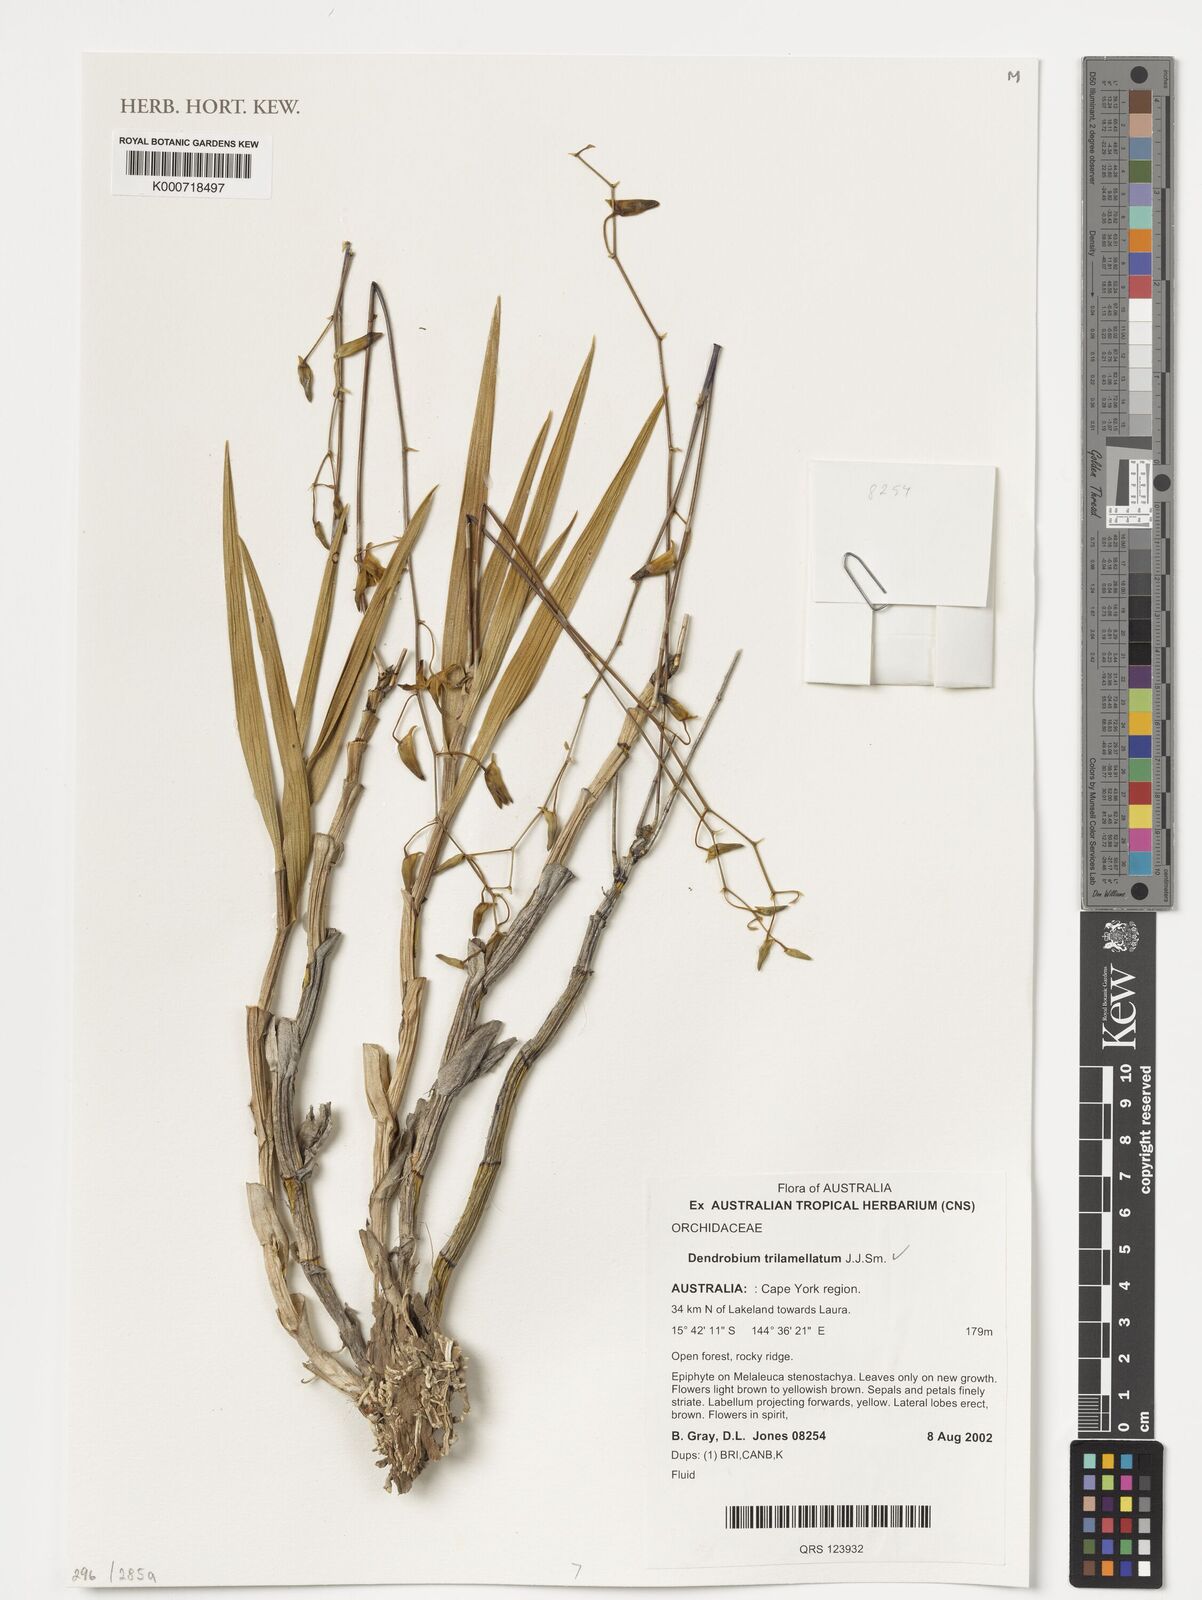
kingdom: Plantae
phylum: Tracheophyta
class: Liliopsida
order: Asparagales
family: Orchidaceae
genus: Dendrobium
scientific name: Dendrobium trilamellatum
